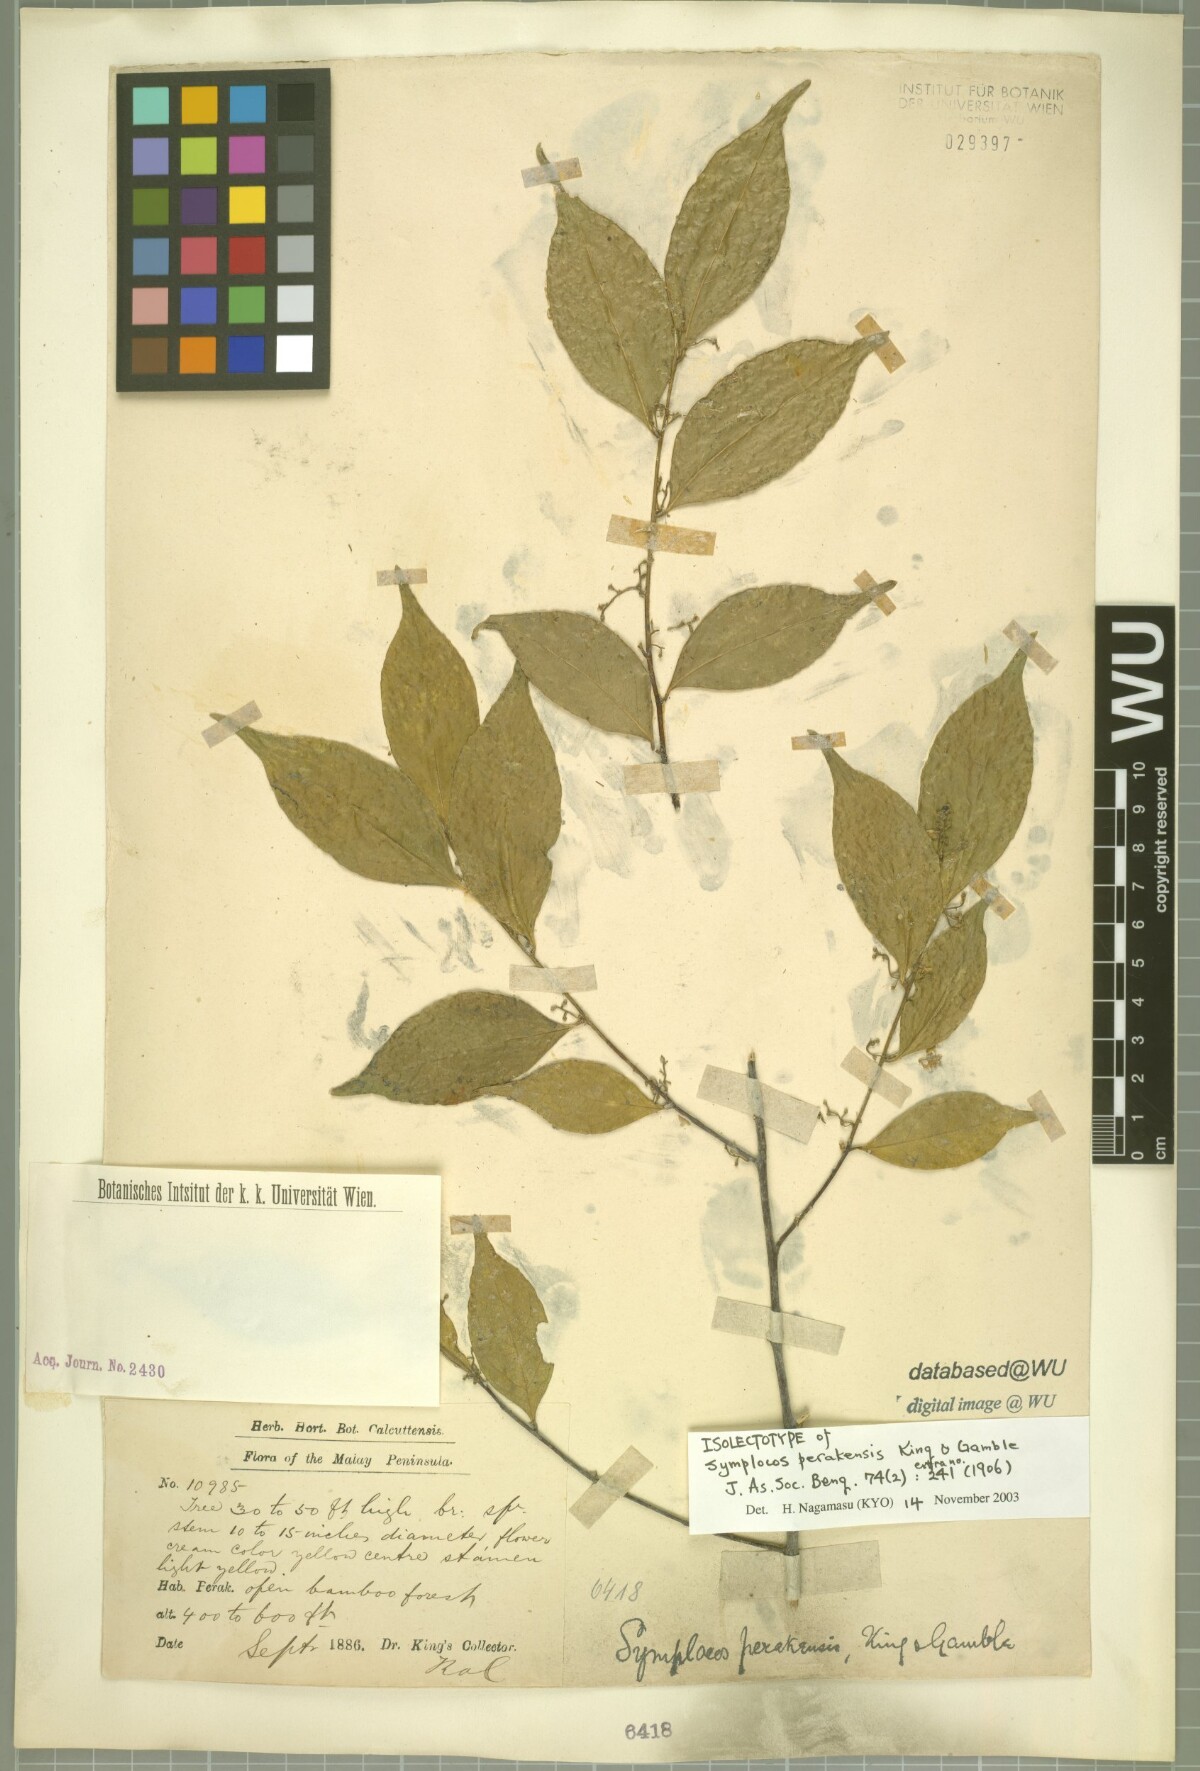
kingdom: Plantae
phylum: Tracheophyta
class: Magnoliopsida
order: Ericales
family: Symplocaceae
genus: Symplocos
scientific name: Symplocos ophirensis
